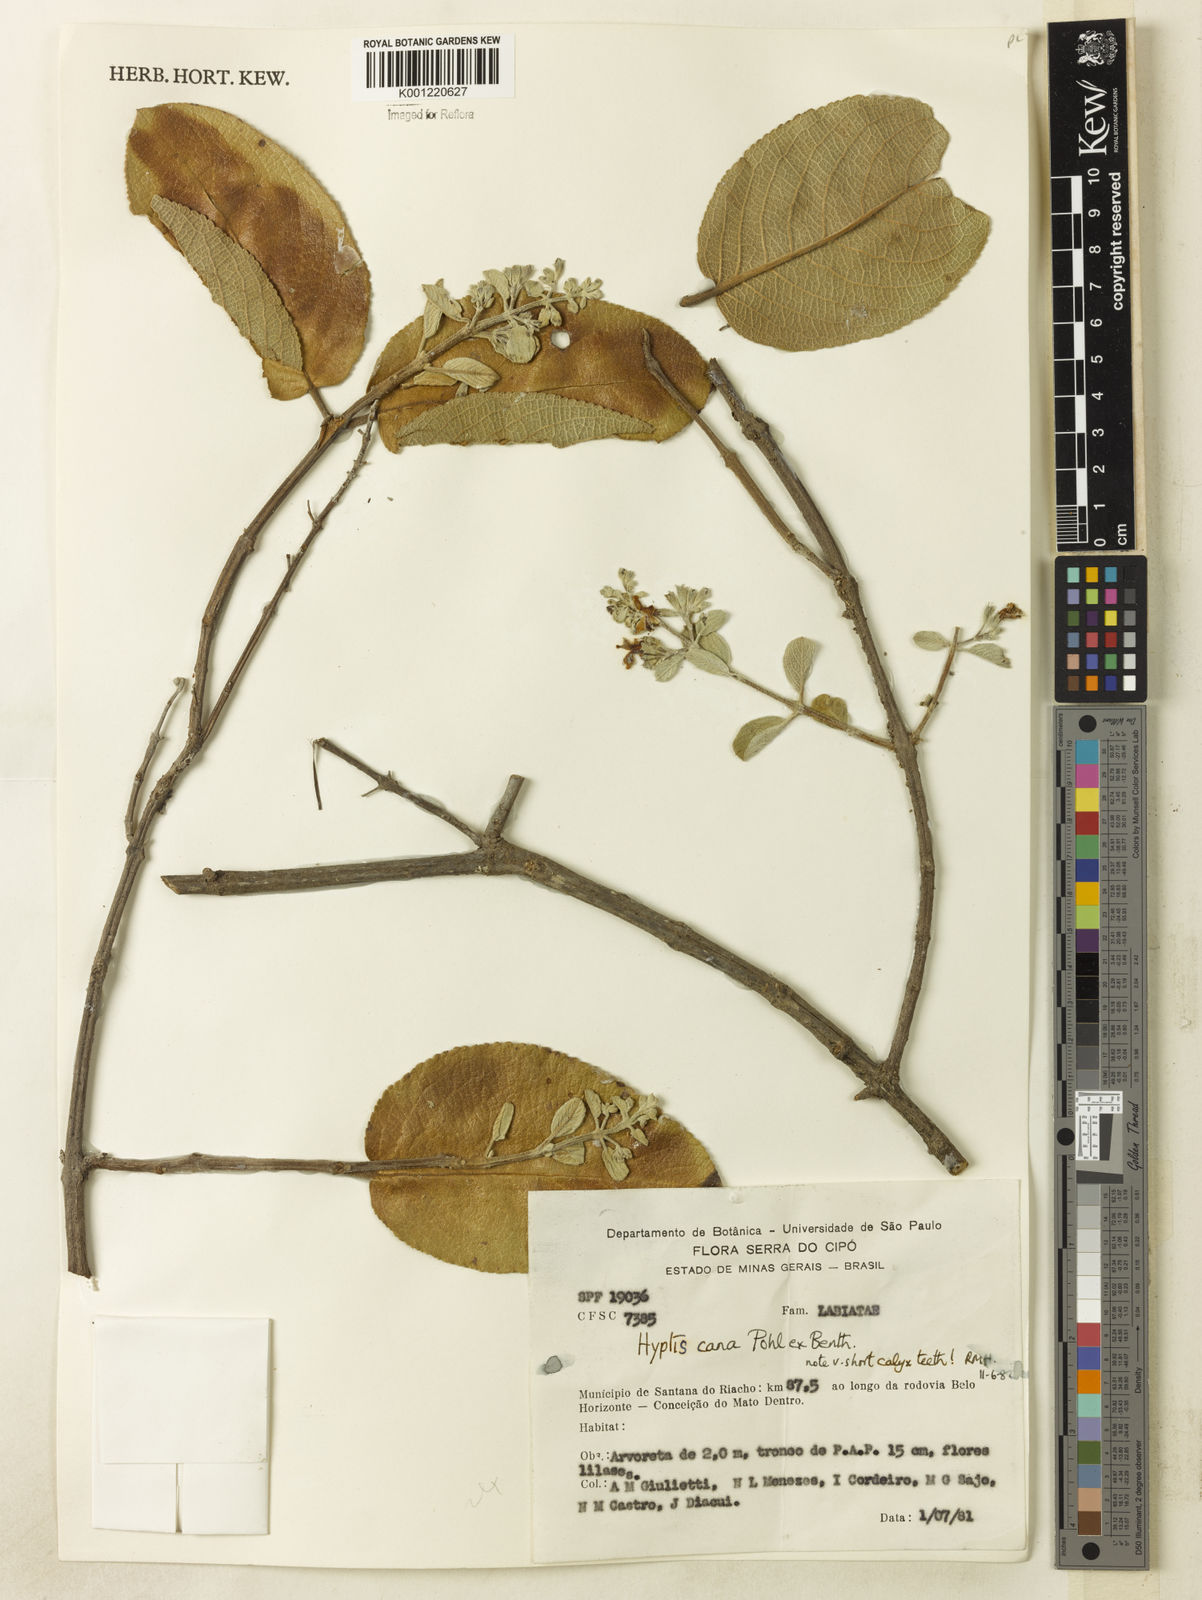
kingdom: Plantae
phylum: Tracheophyta
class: Magnoliopsida
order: Lamiales
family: Lamiaceae
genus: Hyptidendron
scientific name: Hyptidendron canum
